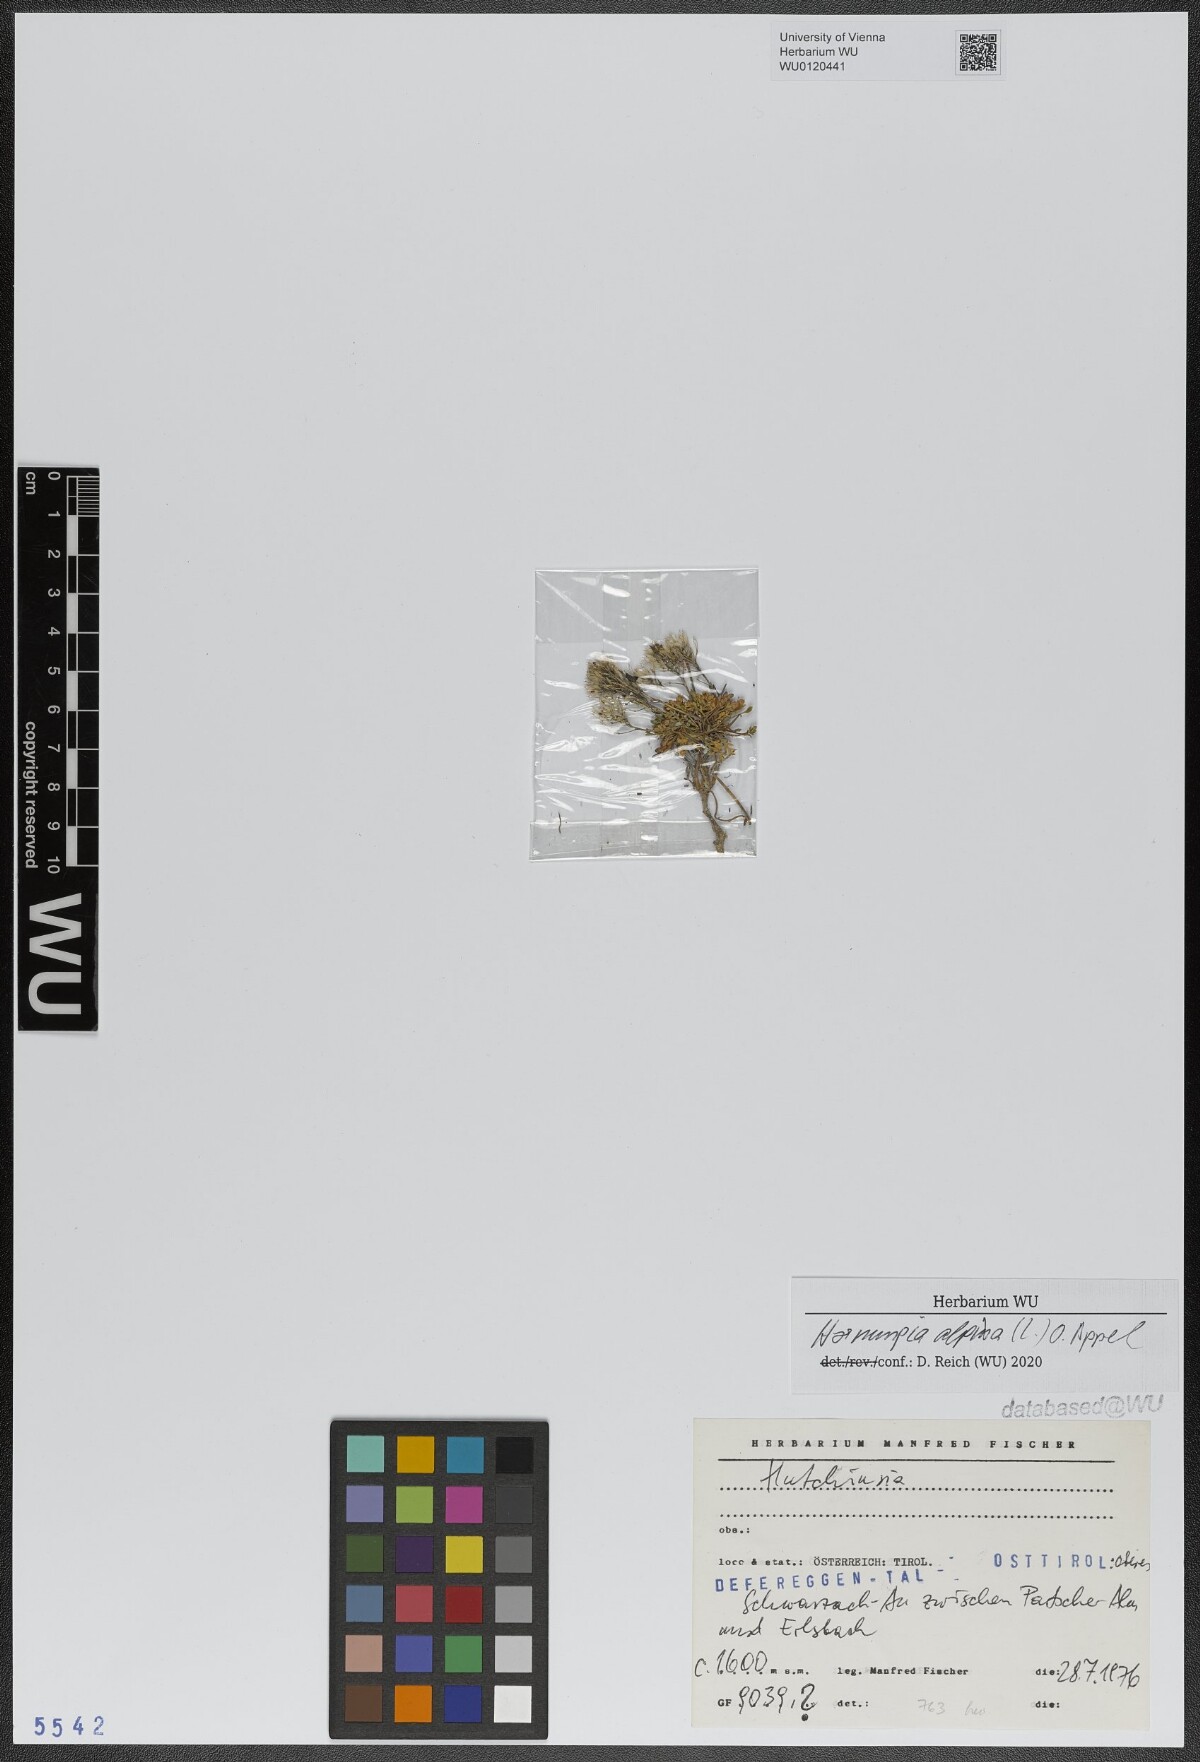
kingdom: Plantae
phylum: Tracheophyta
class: Magnoliopsida
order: Brassicales
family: Brassicaceae
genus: Hornungia
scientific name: Hornungia alpina
